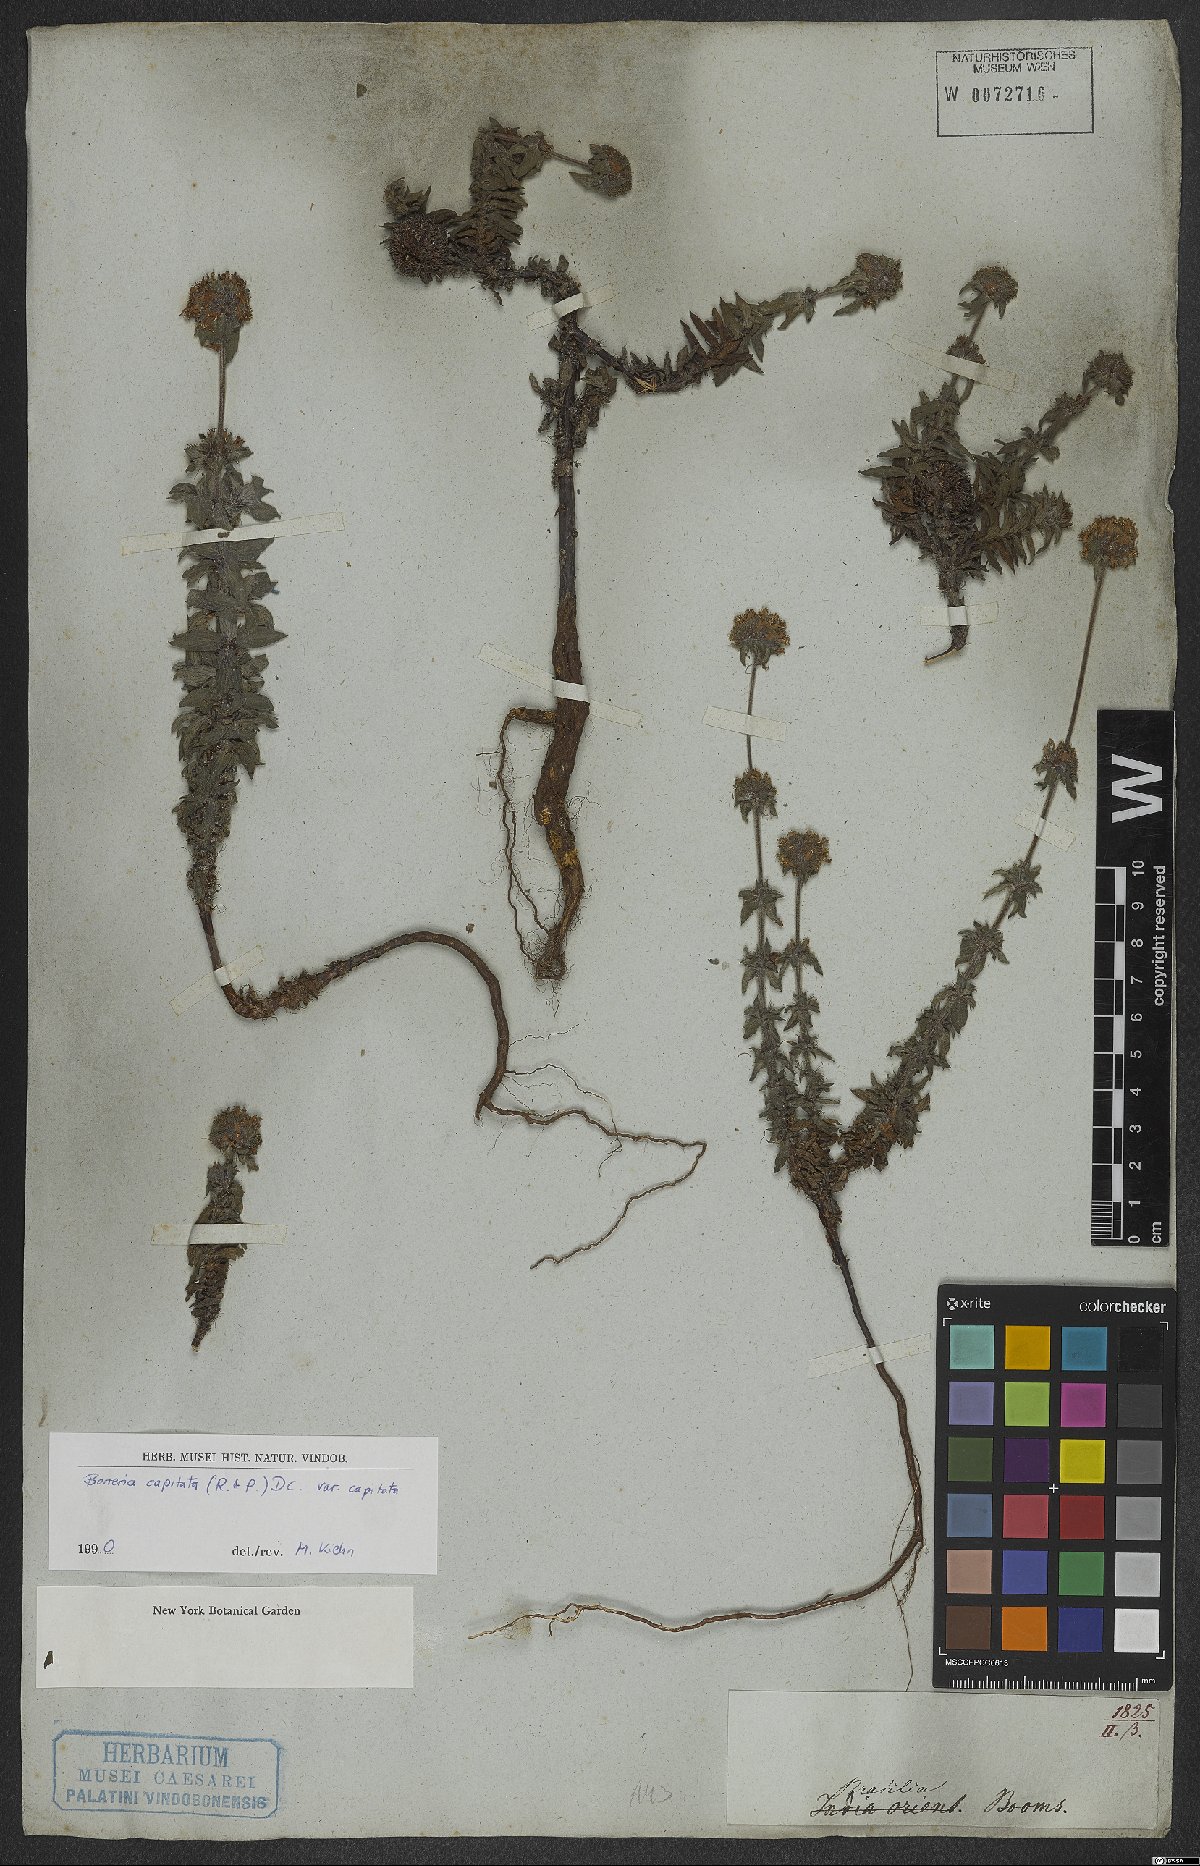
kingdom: Plantae
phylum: Tracheophyta
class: Magnoliopsida
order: Gentianales
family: Rubiaceae
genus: Spermacoce
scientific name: Spermacoce capitata
